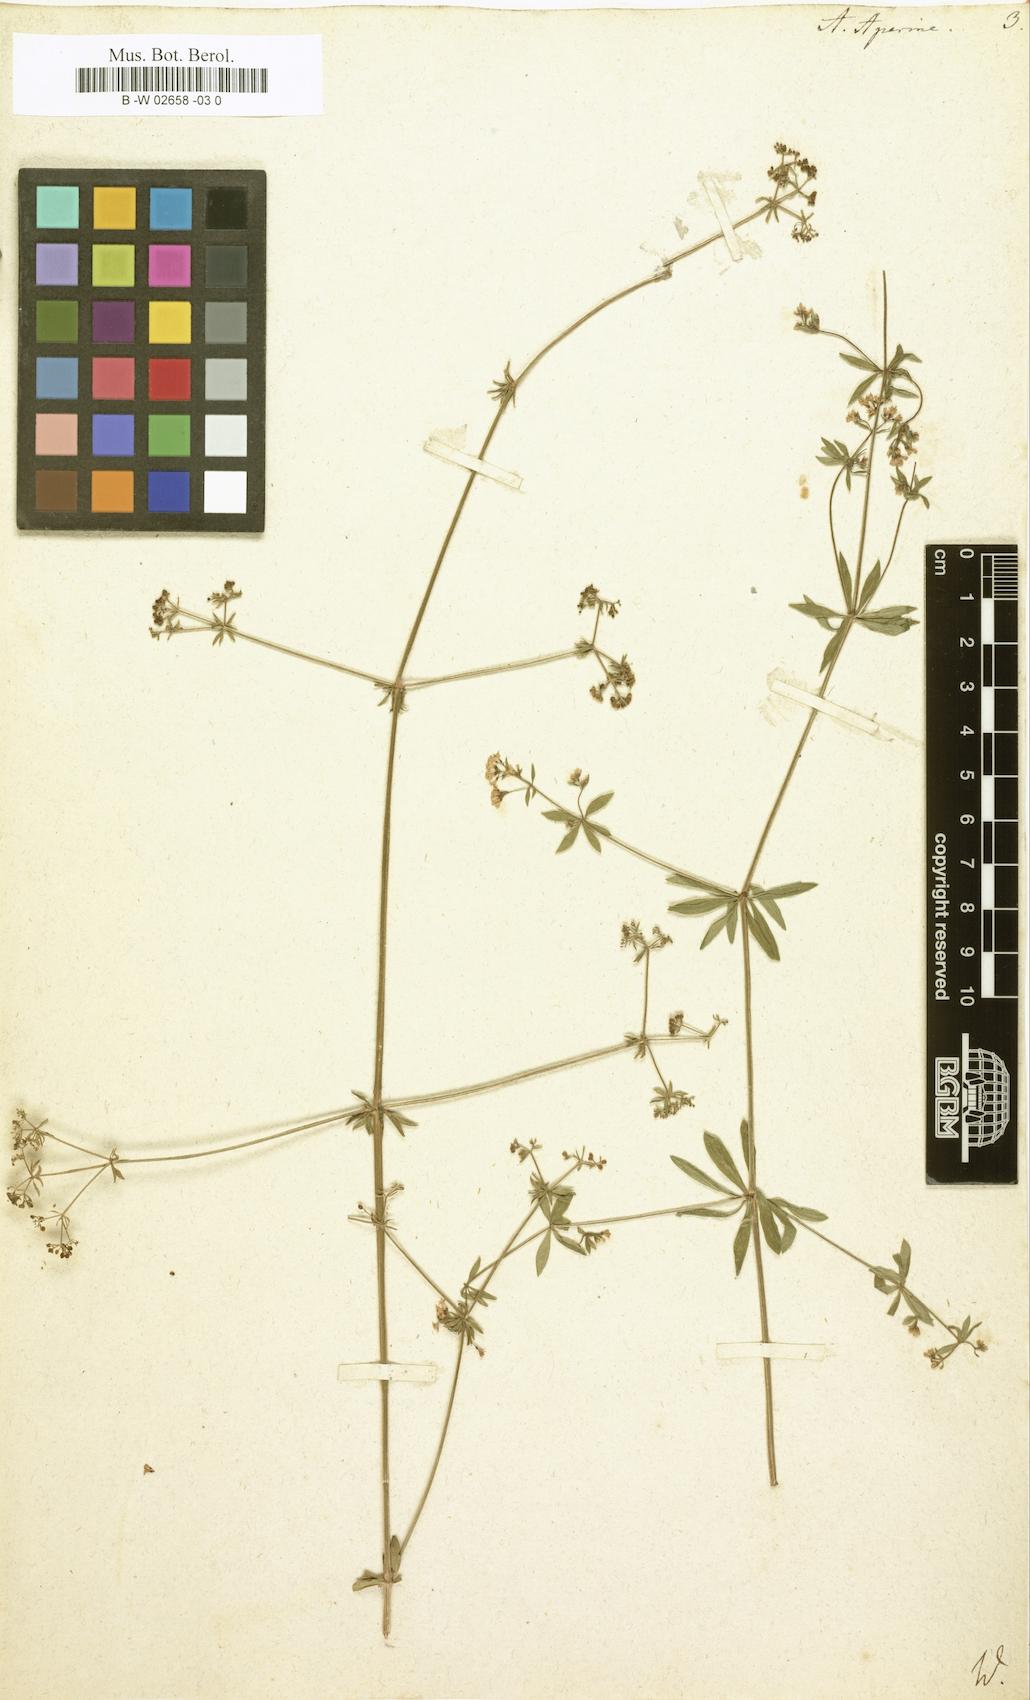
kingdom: Plantae
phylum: Tracheophyta
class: Magnoliopsida
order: Gentianales
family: Rubiaceae
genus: Galium
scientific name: Galium
